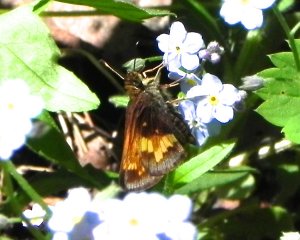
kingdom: Animalia
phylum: Arthropoda
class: Insecta
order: Lepidoptera
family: Hesperiidae
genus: Lon
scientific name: Lon hobomok
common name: Hobomok Skipper
